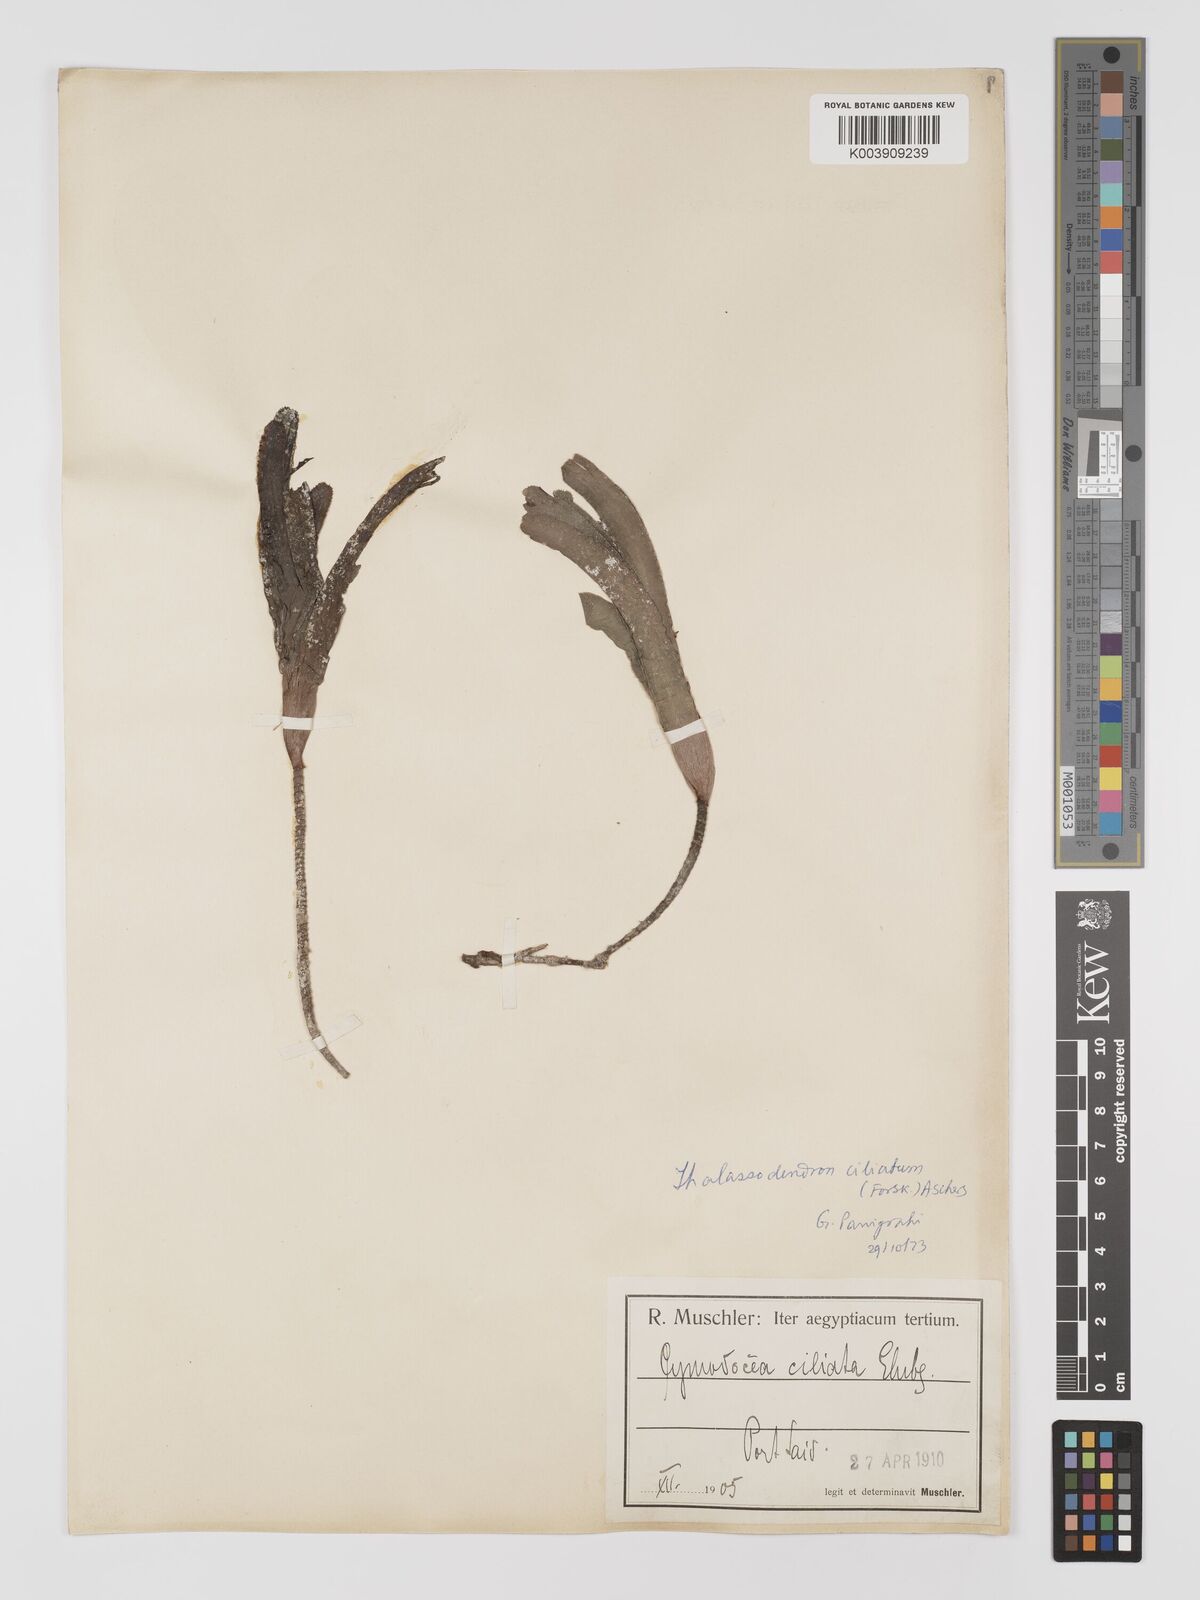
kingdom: Plantae
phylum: Tracheophyta
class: Liliopsida
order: Alismatales
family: Cymodoceaceae
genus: Thalassodendron
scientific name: Thalassodendron ciliatum
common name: Species code: tc
